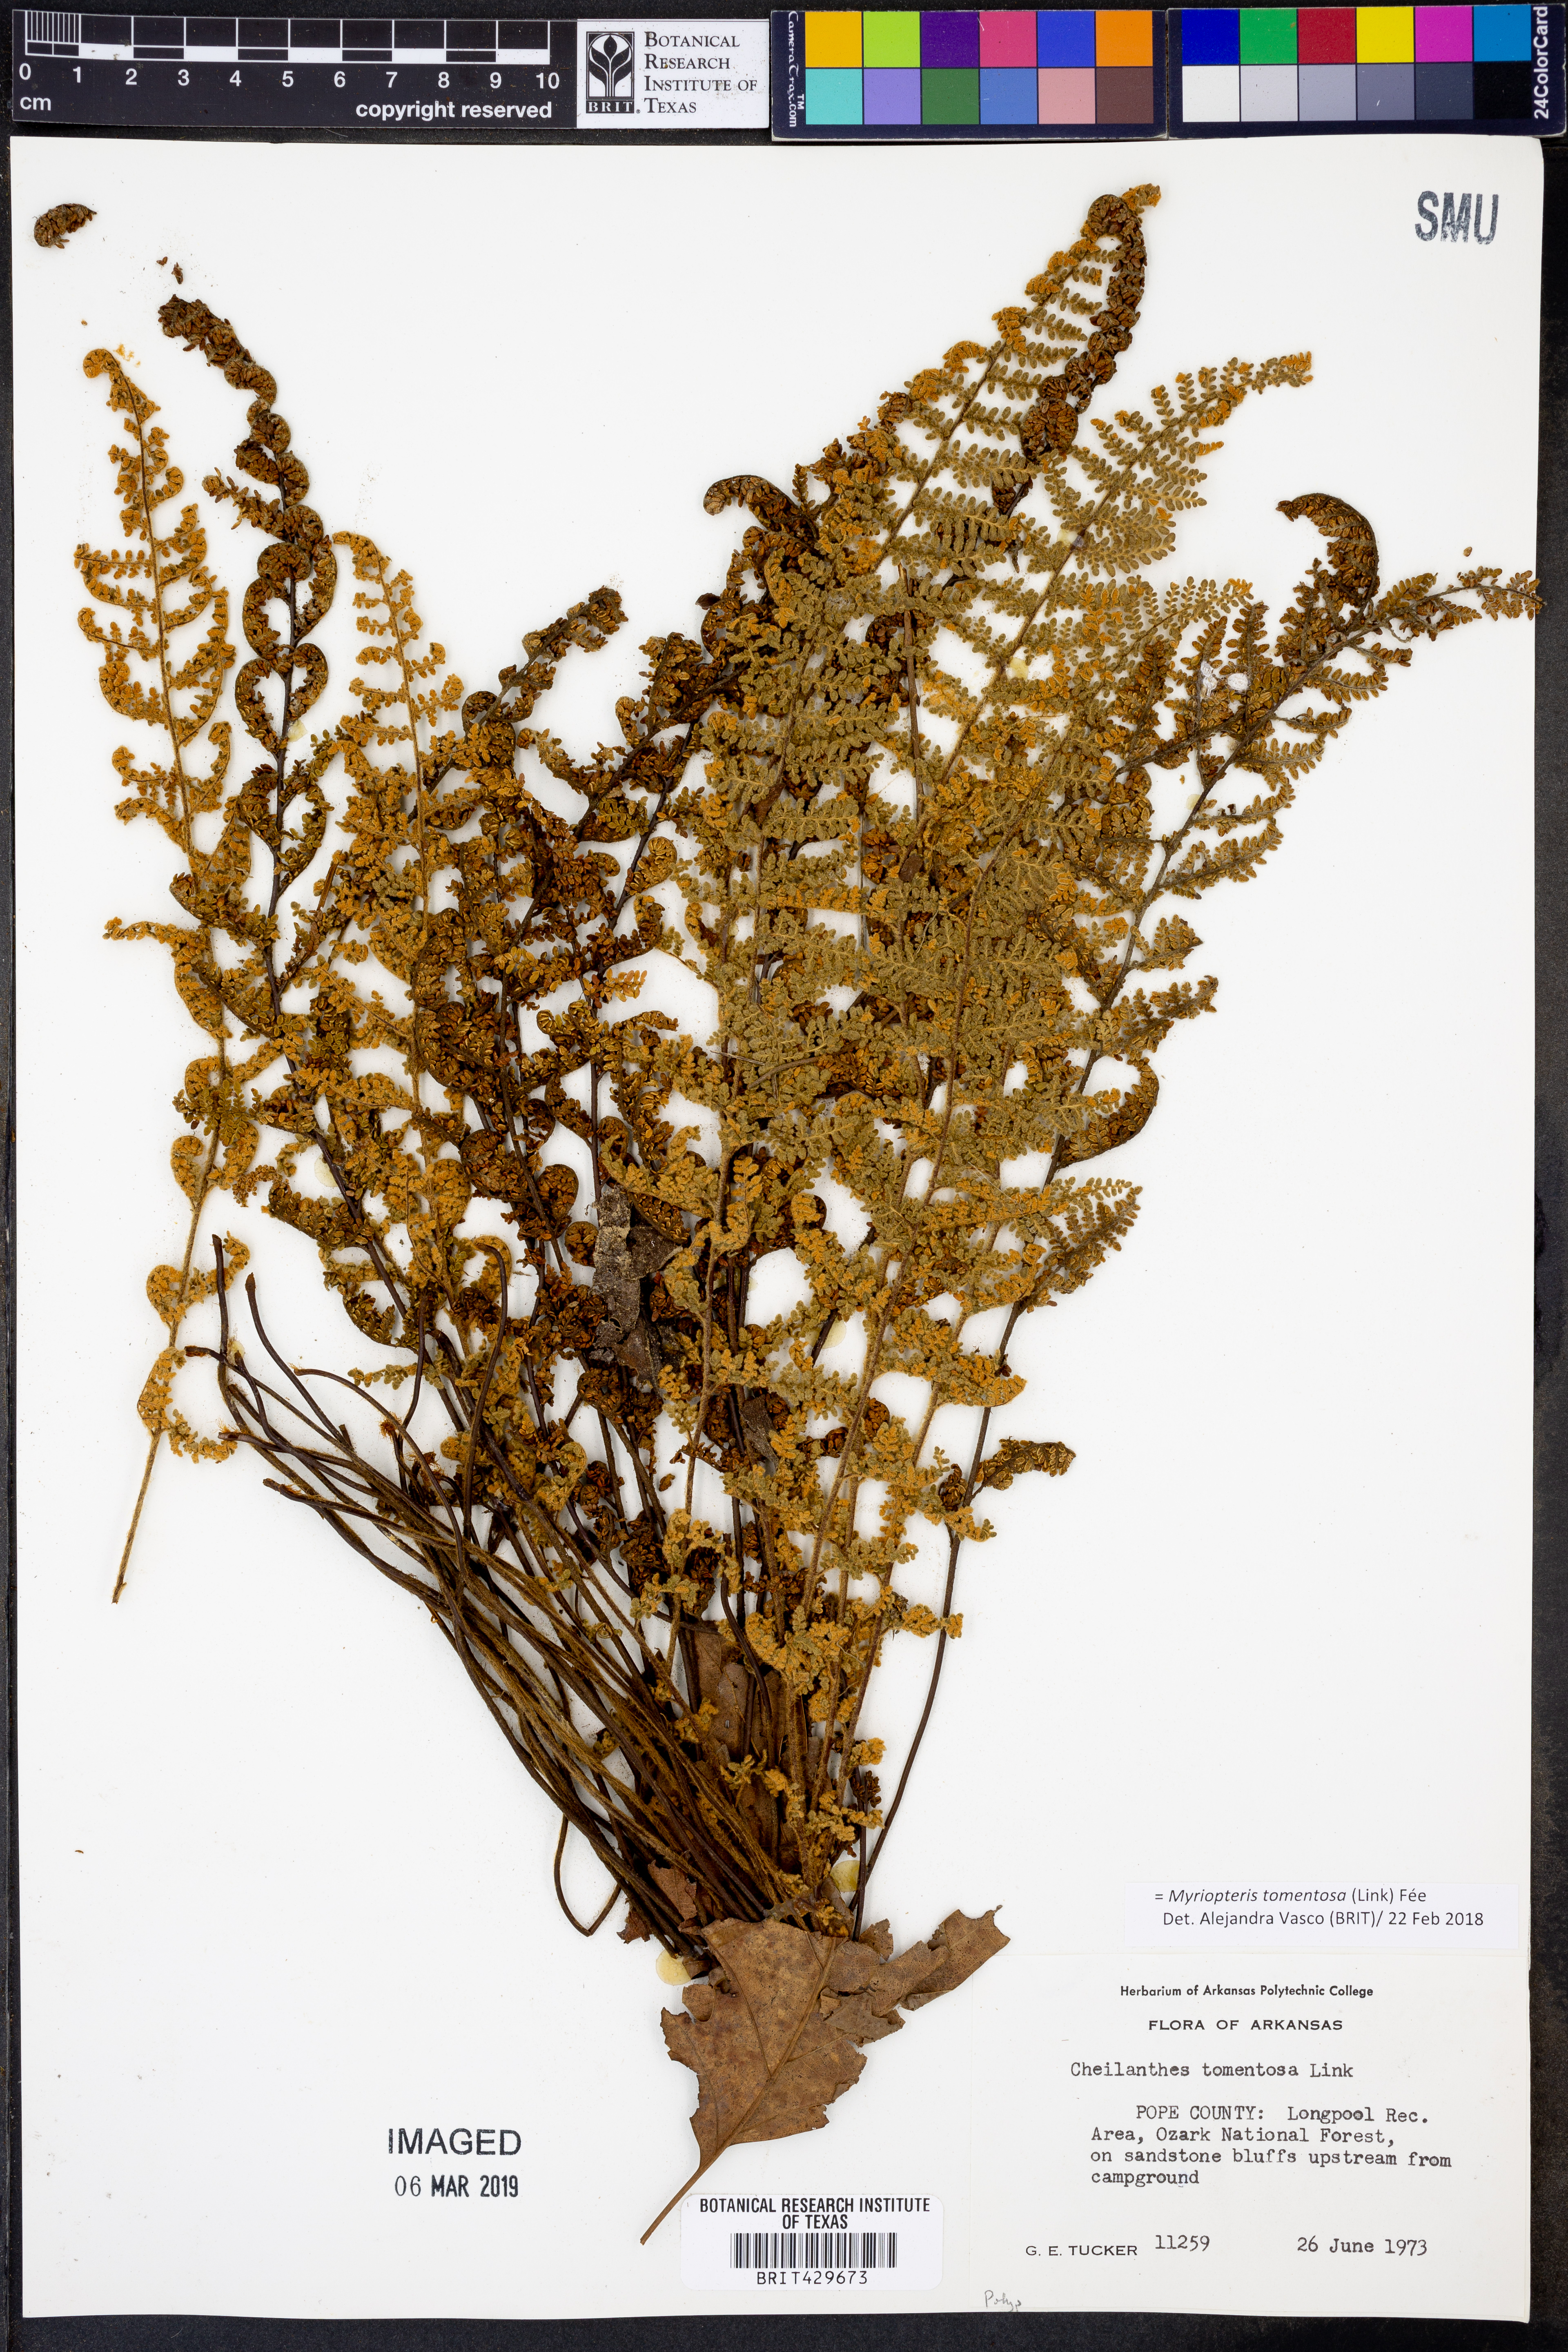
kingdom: Plantae
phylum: Tracheophyta
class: Polypodiopsida
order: Polypodiales
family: Pteridaceae
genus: Myriopteris
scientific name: Myriopteris tomentosa
